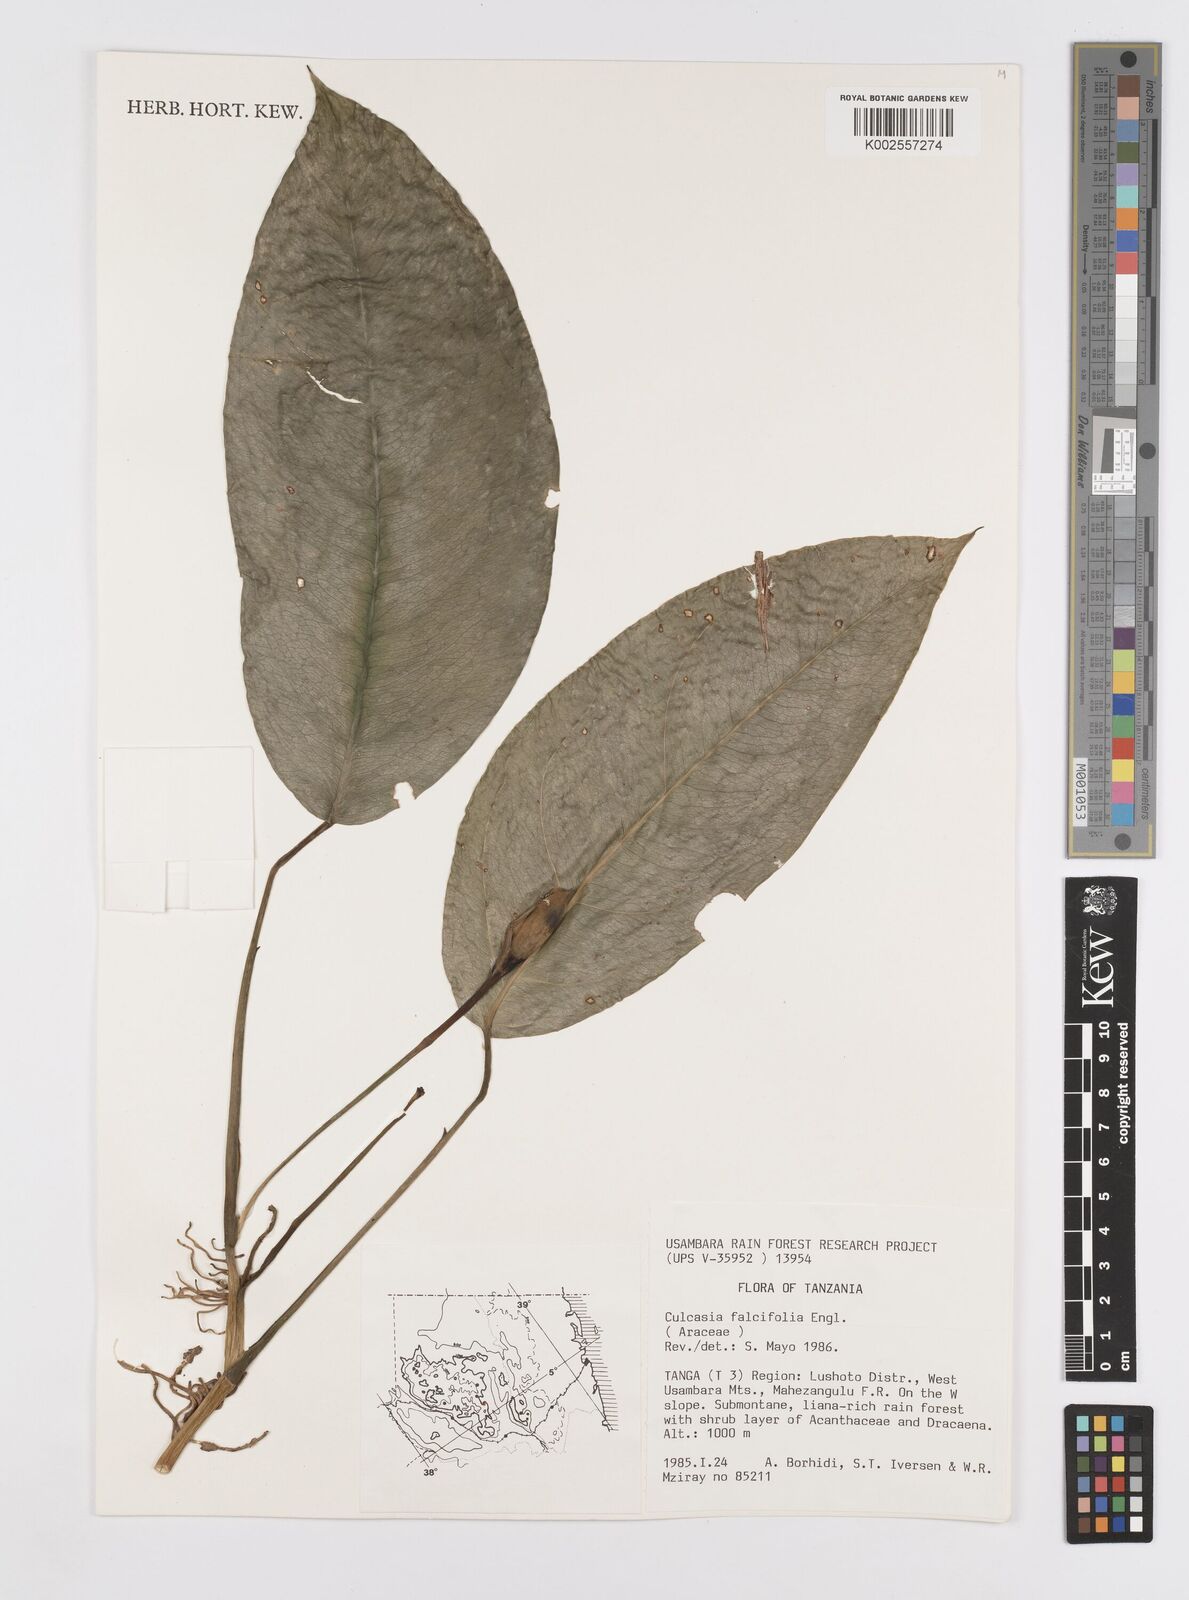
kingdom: Plantae
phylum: Tracheophyta
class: Liliopsida
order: Alismatales
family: Araceae
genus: Culcasia
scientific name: Culcasia falcifolia
